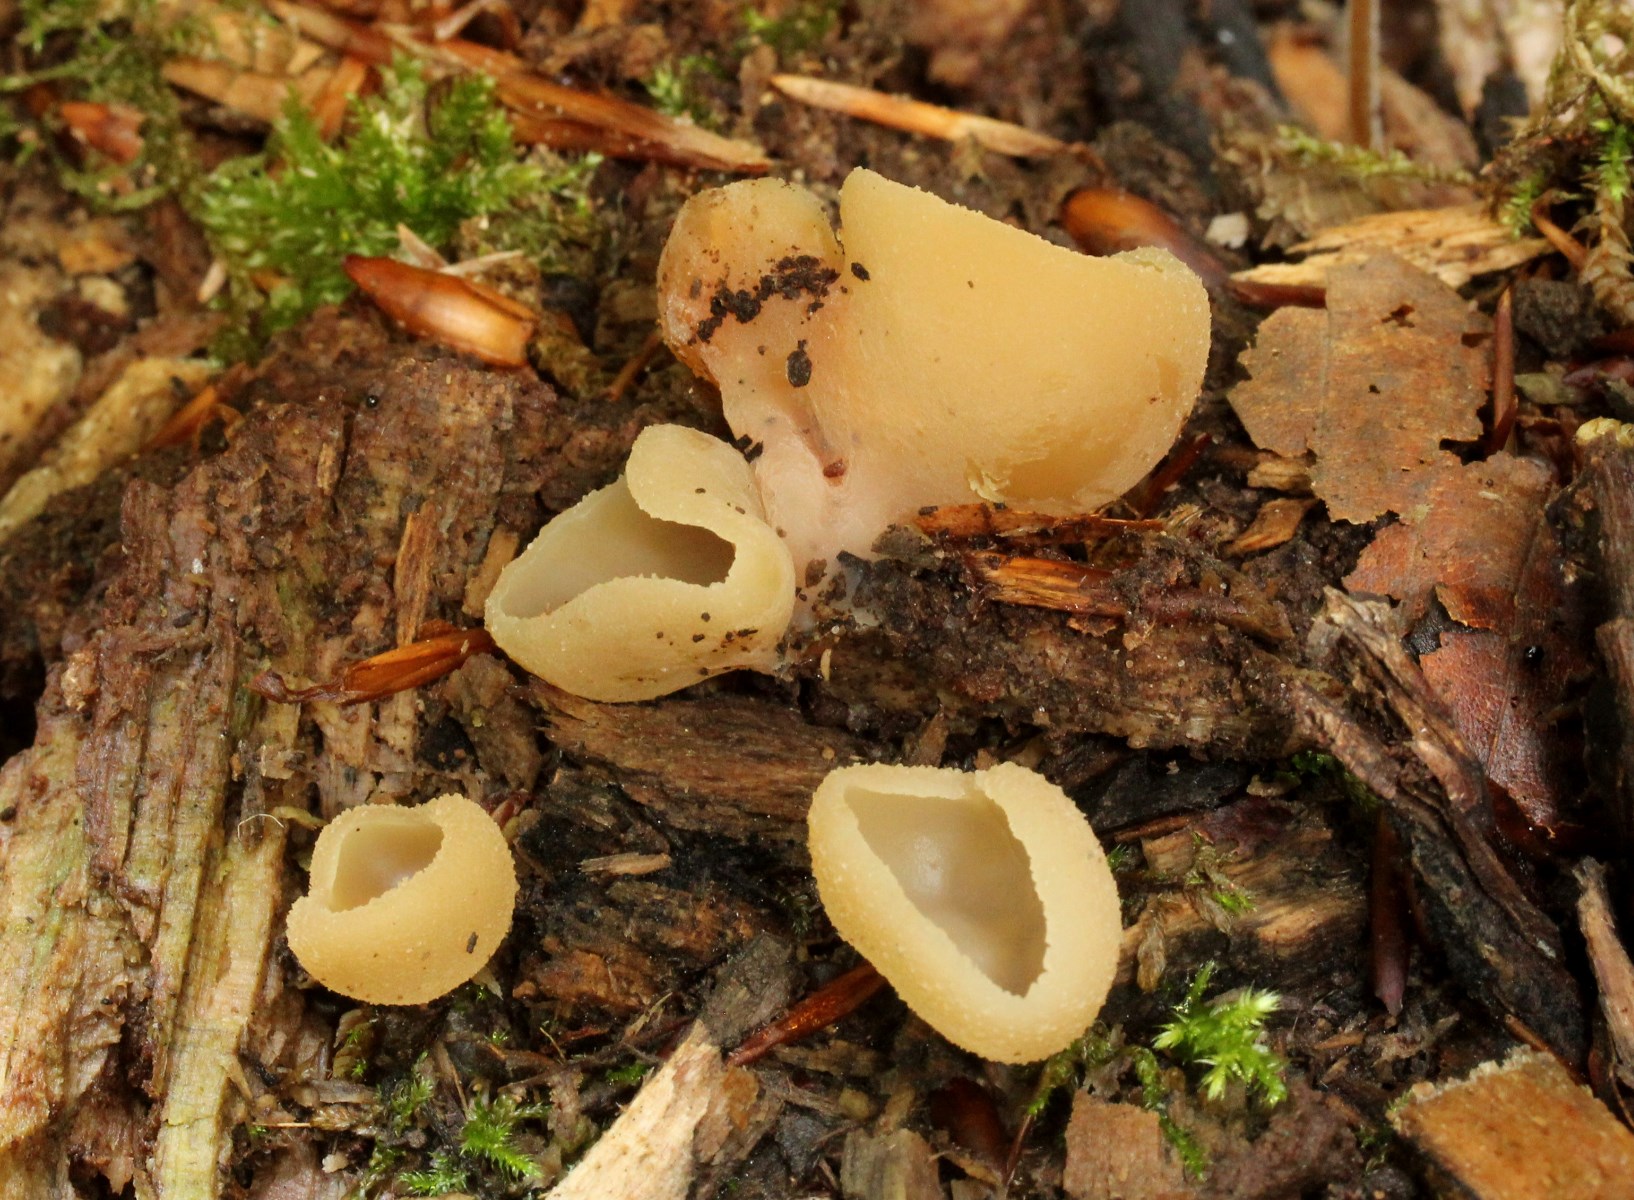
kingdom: Fungi
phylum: Ascomycota
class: Pezizomycetes
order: Pezizales
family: Pezizaceae
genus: Peziza
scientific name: Peziza varia
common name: Ved-bægersvamp
